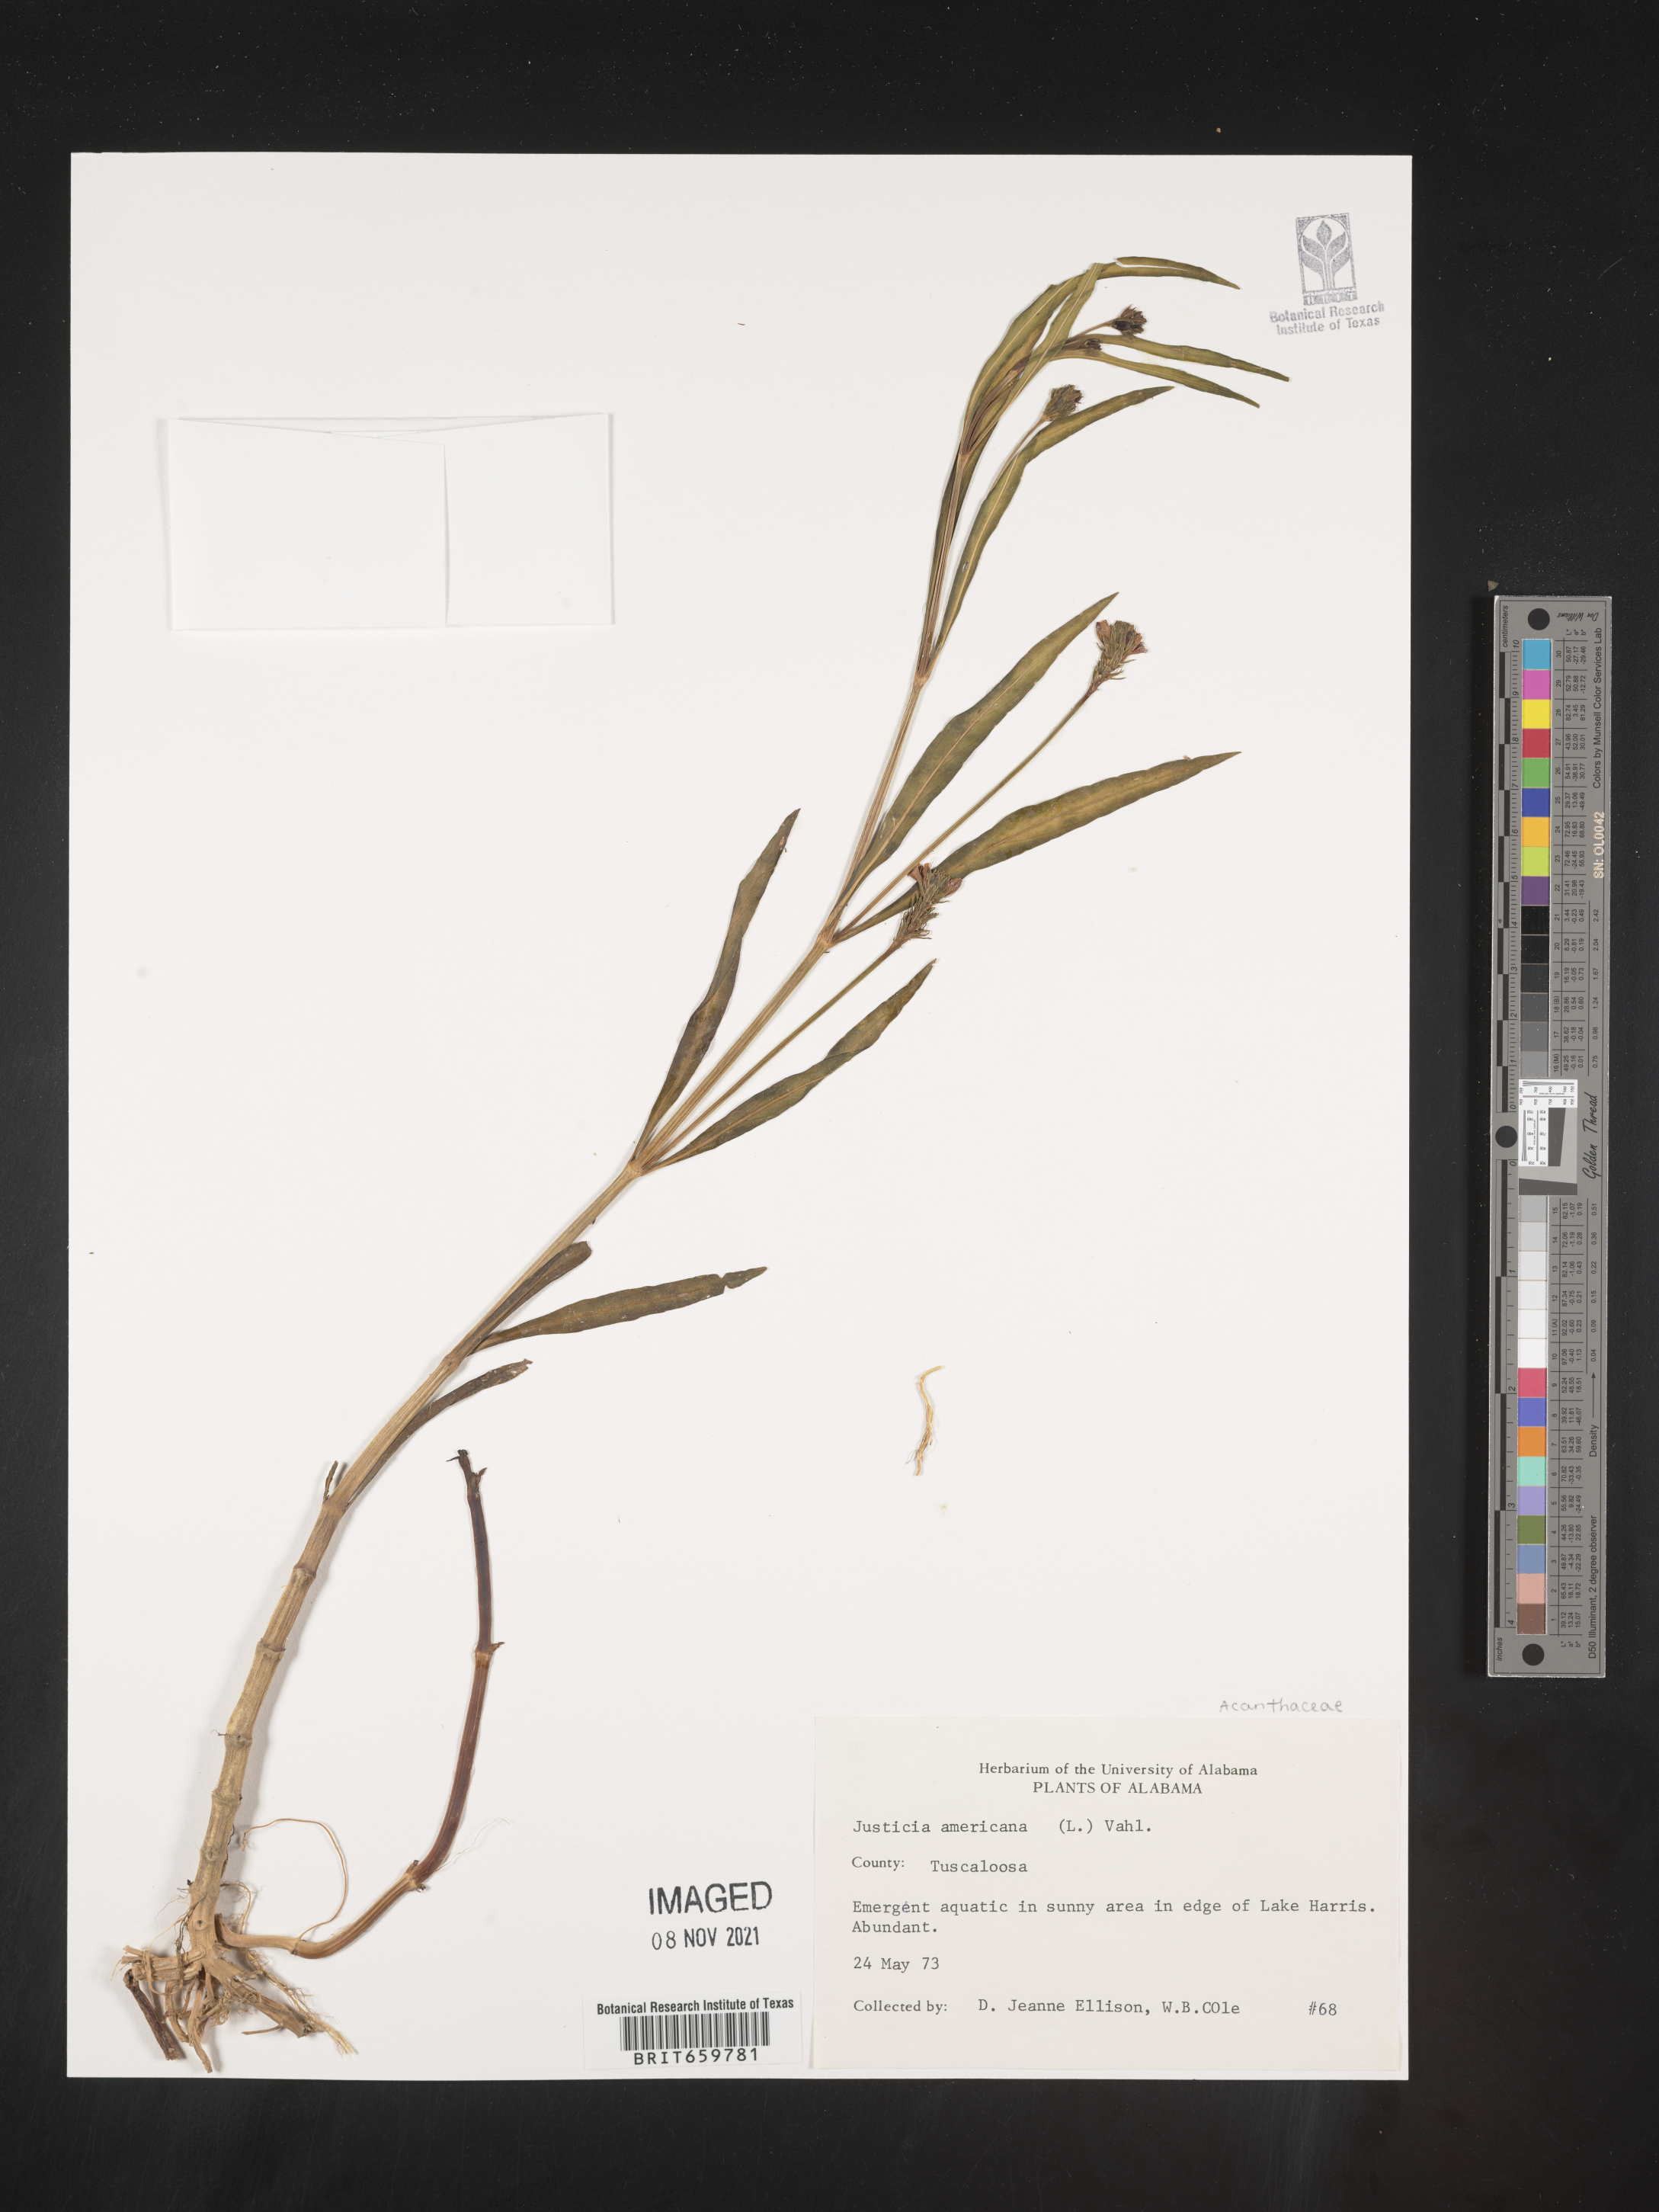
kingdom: Plantae
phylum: Tracheophyta
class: Magnoliopsida
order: Lamiales
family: Acanthaceae
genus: Dianthera
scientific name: Dianthera americana
